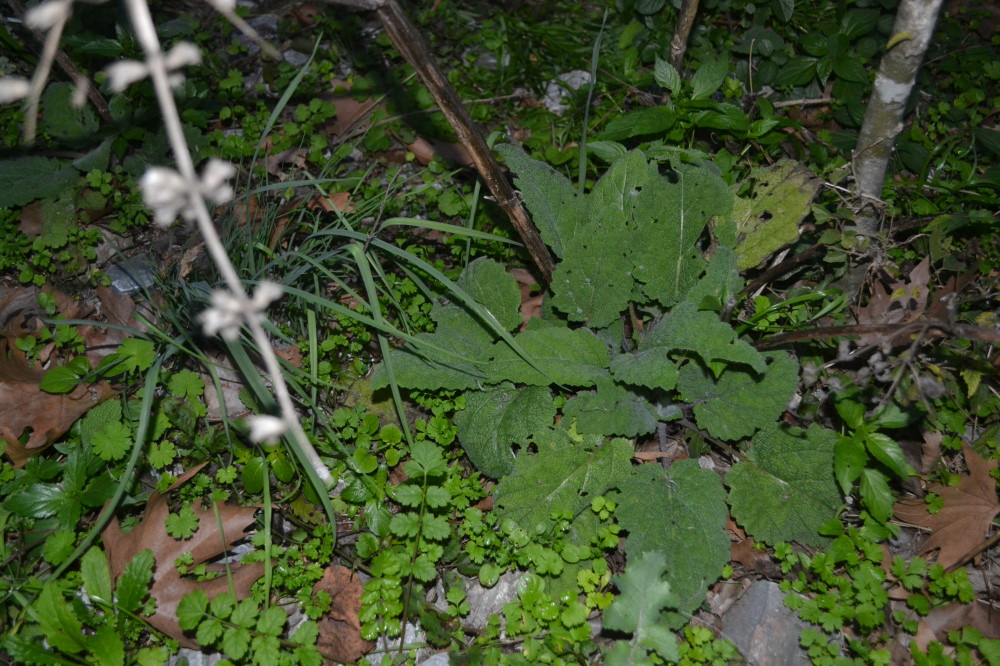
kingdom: Plantae
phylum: Tracheophyta
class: Magnoliopsida
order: Lamiales
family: Lamiaceae
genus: Salvia
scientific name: Salvia
